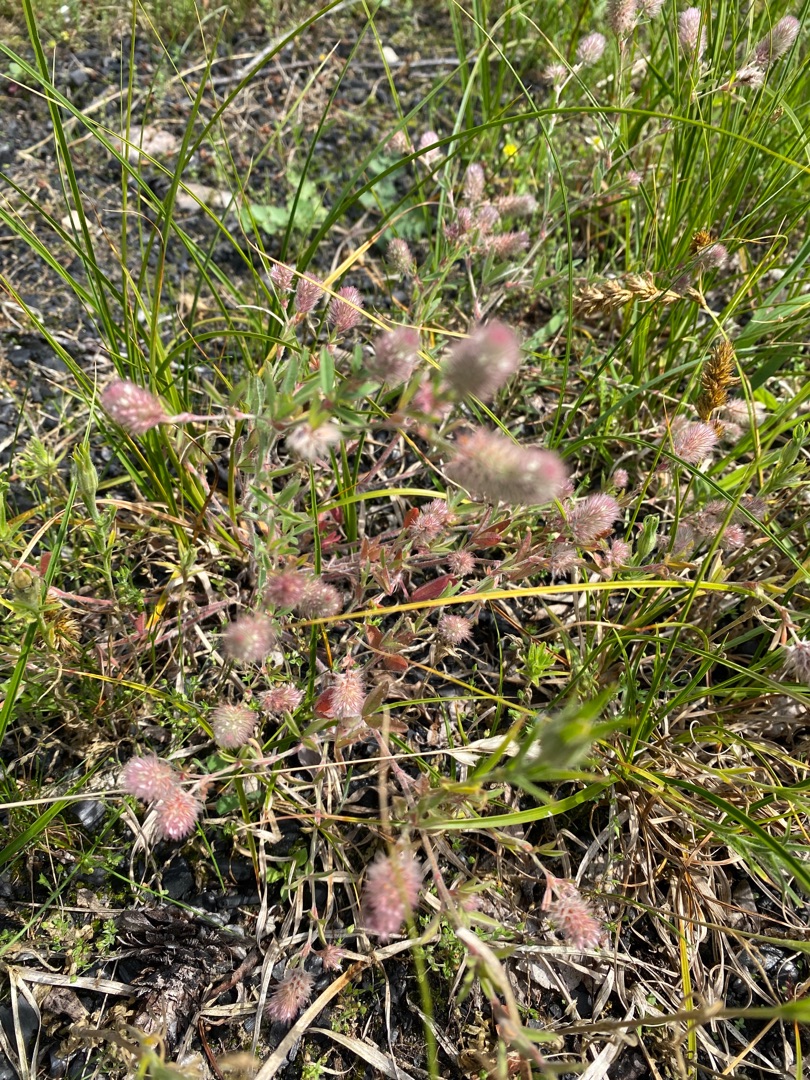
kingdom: Plantae
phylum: Tracheophyta
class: Magnoliopsida
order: Fabales
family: Fabaceae
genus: Trifolium
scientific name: Trifolium arvense
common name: Hare-kløver
